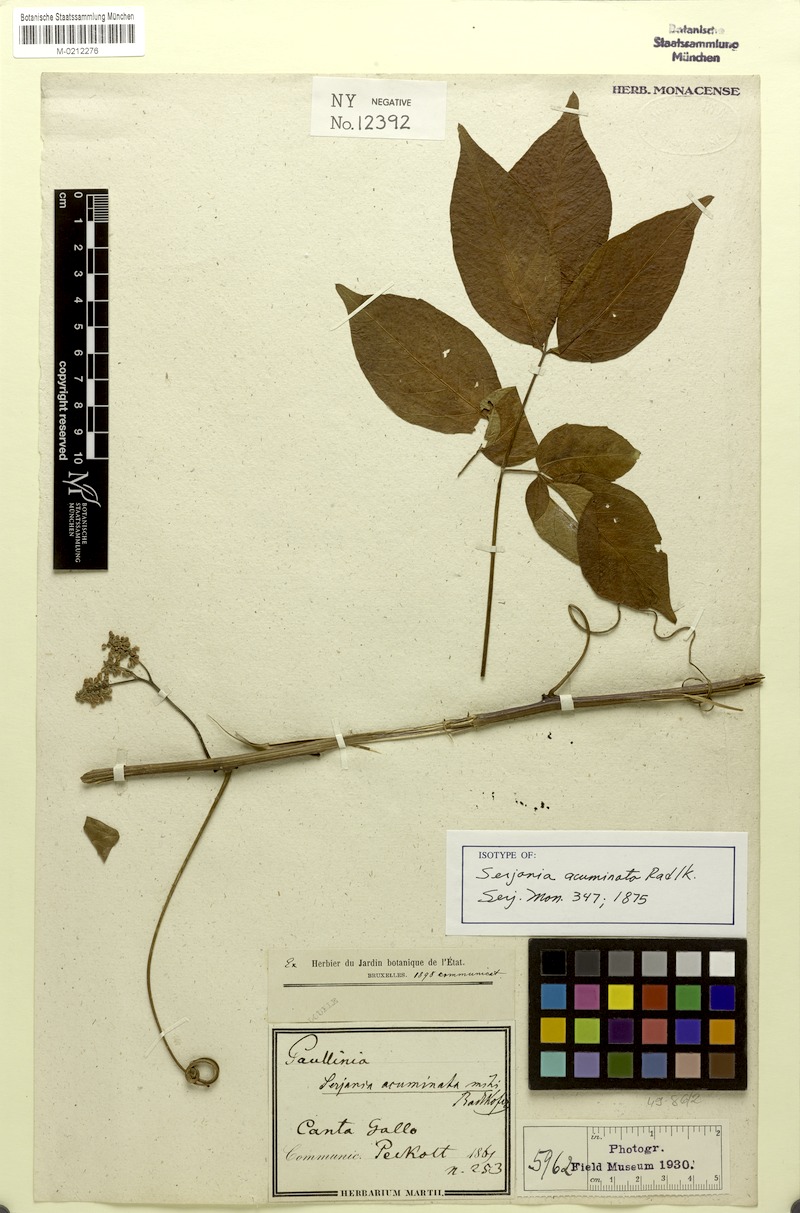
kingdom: Plantae
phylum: Tracheophyta
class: Magnoliopsida
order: Sapindales
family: Sapindaceae
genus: Serjania
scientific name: Serjania acuminata
